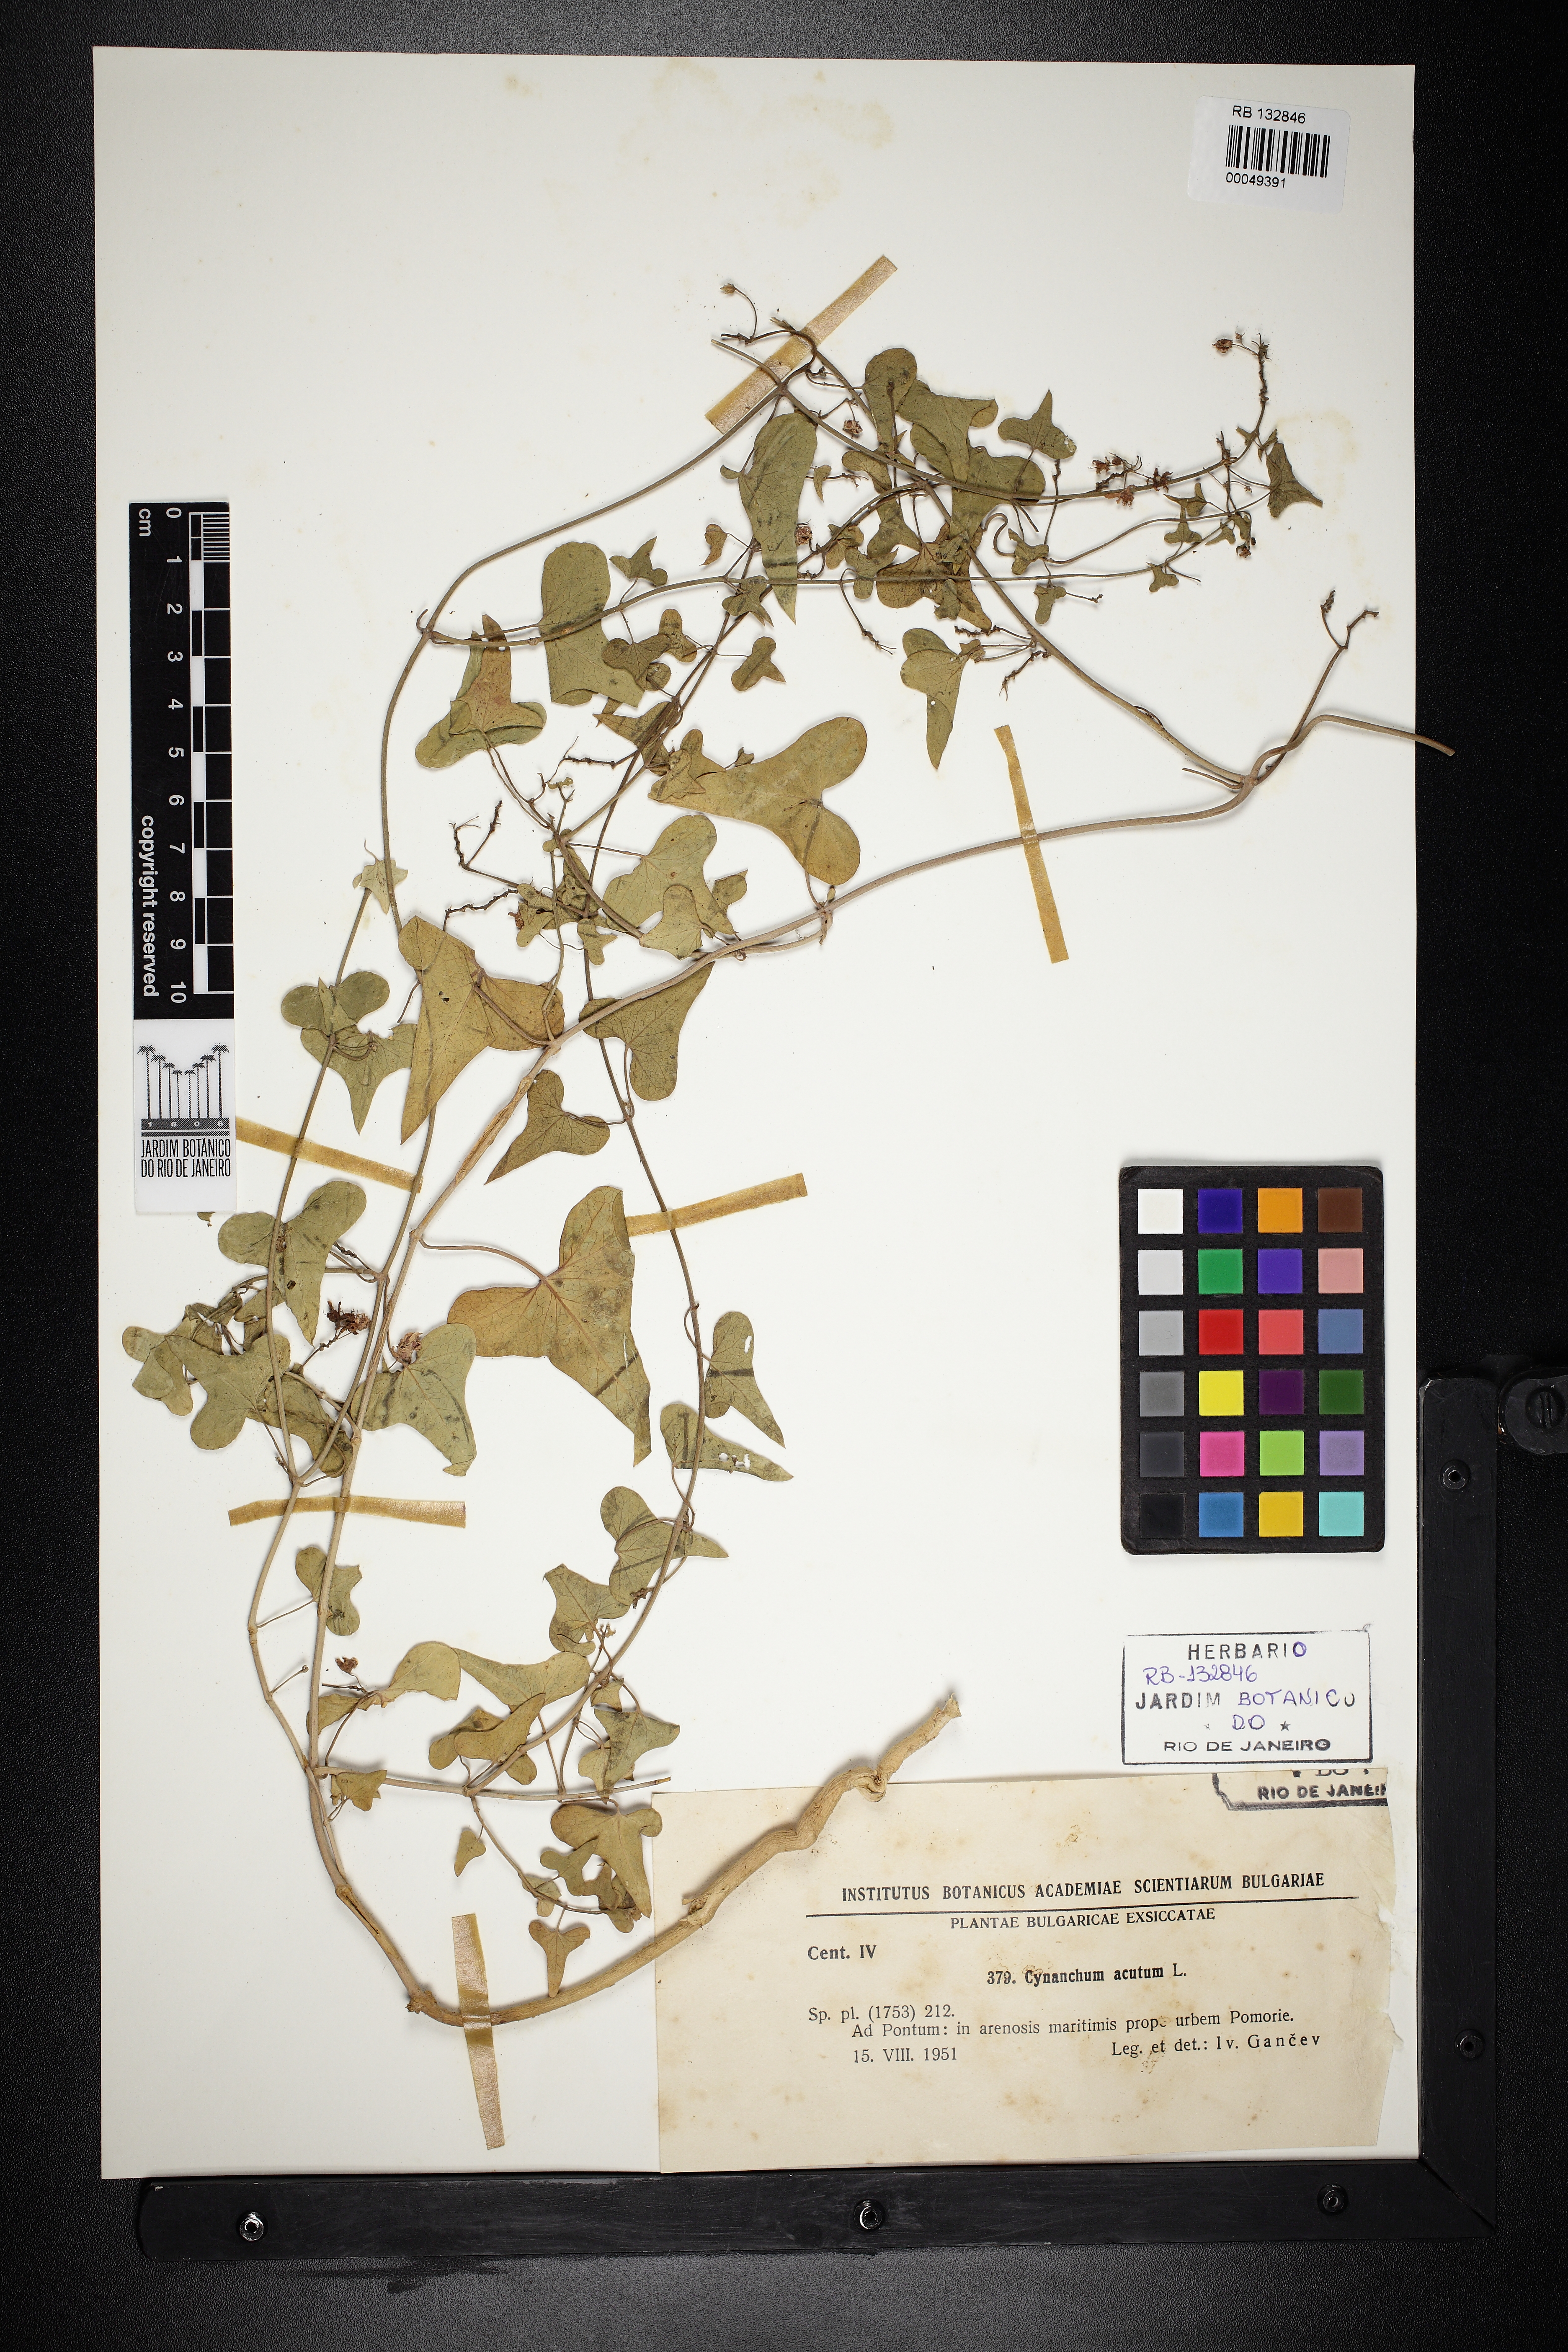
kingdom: Plantae
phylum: Tracheophyta
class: Magnoliopsida
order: Gentianales
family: Apocynaceae
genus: Cynanchum
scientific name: Cynanchum acutum
